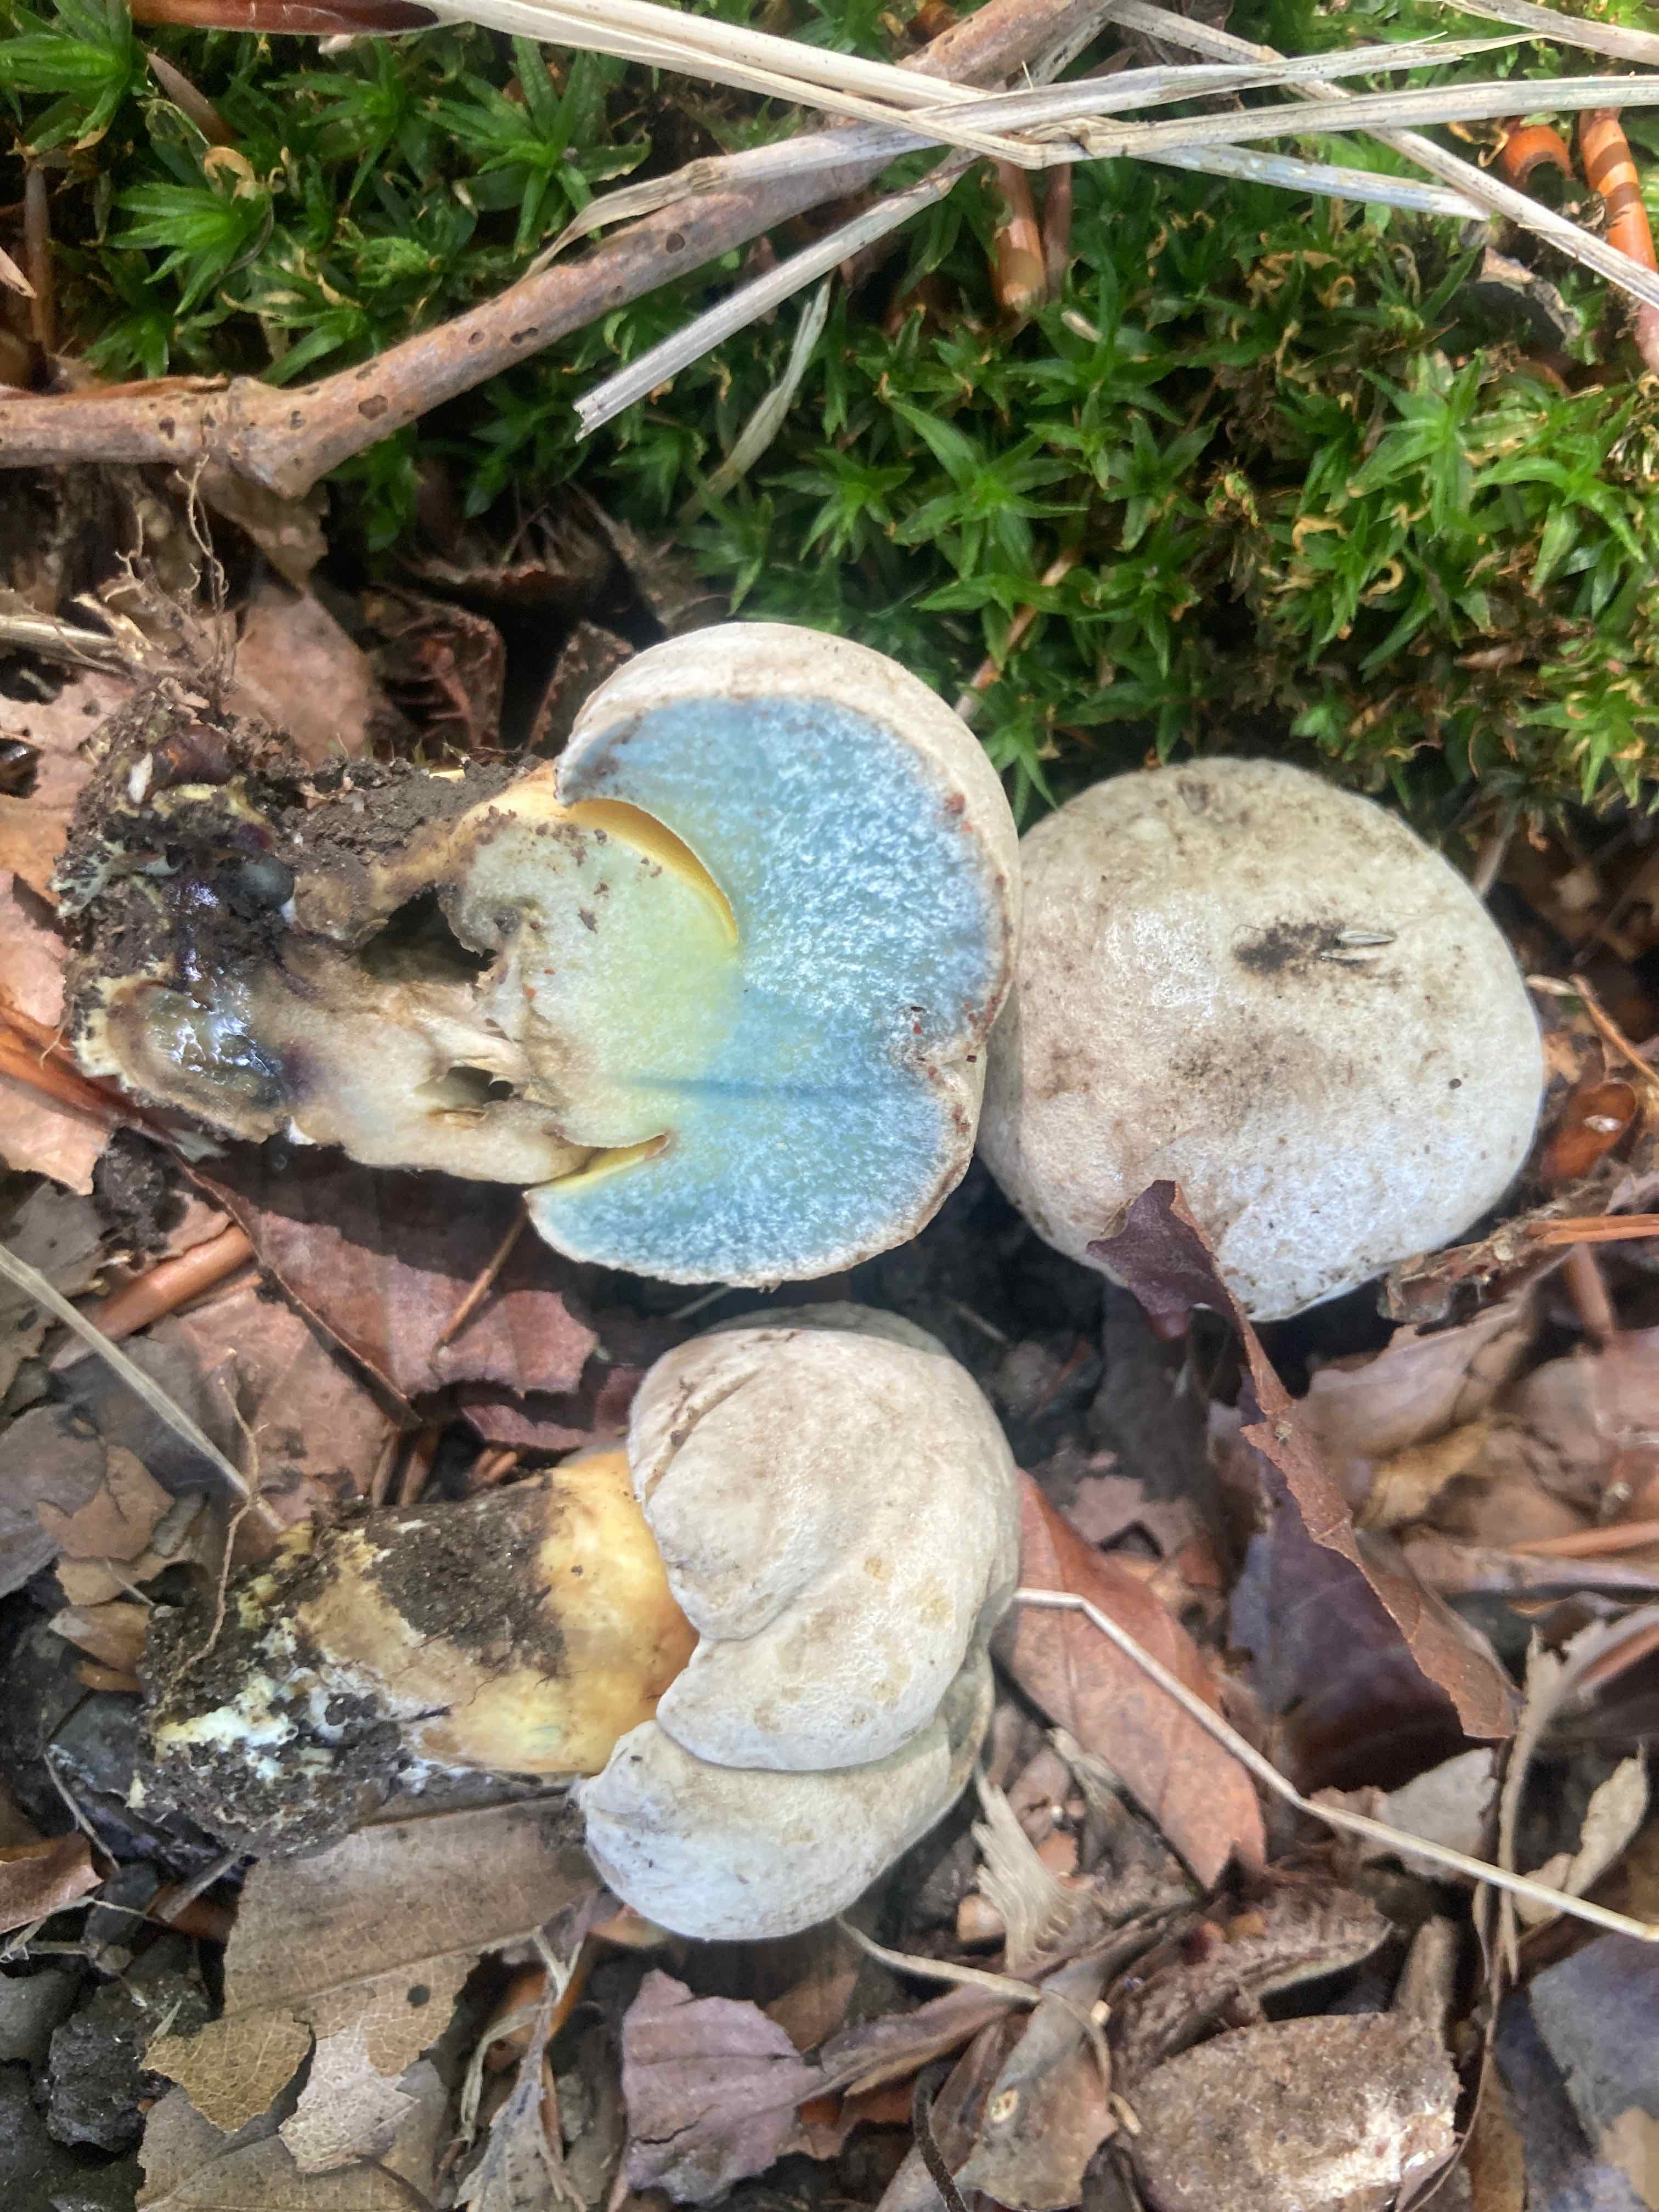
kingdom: Fungi
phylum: Basidiomycota
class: Agaricomycetes
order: Boletales
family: Boletaceae
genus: Caloboletus
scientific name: Caloboletus radicans
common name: rod-rørhat
